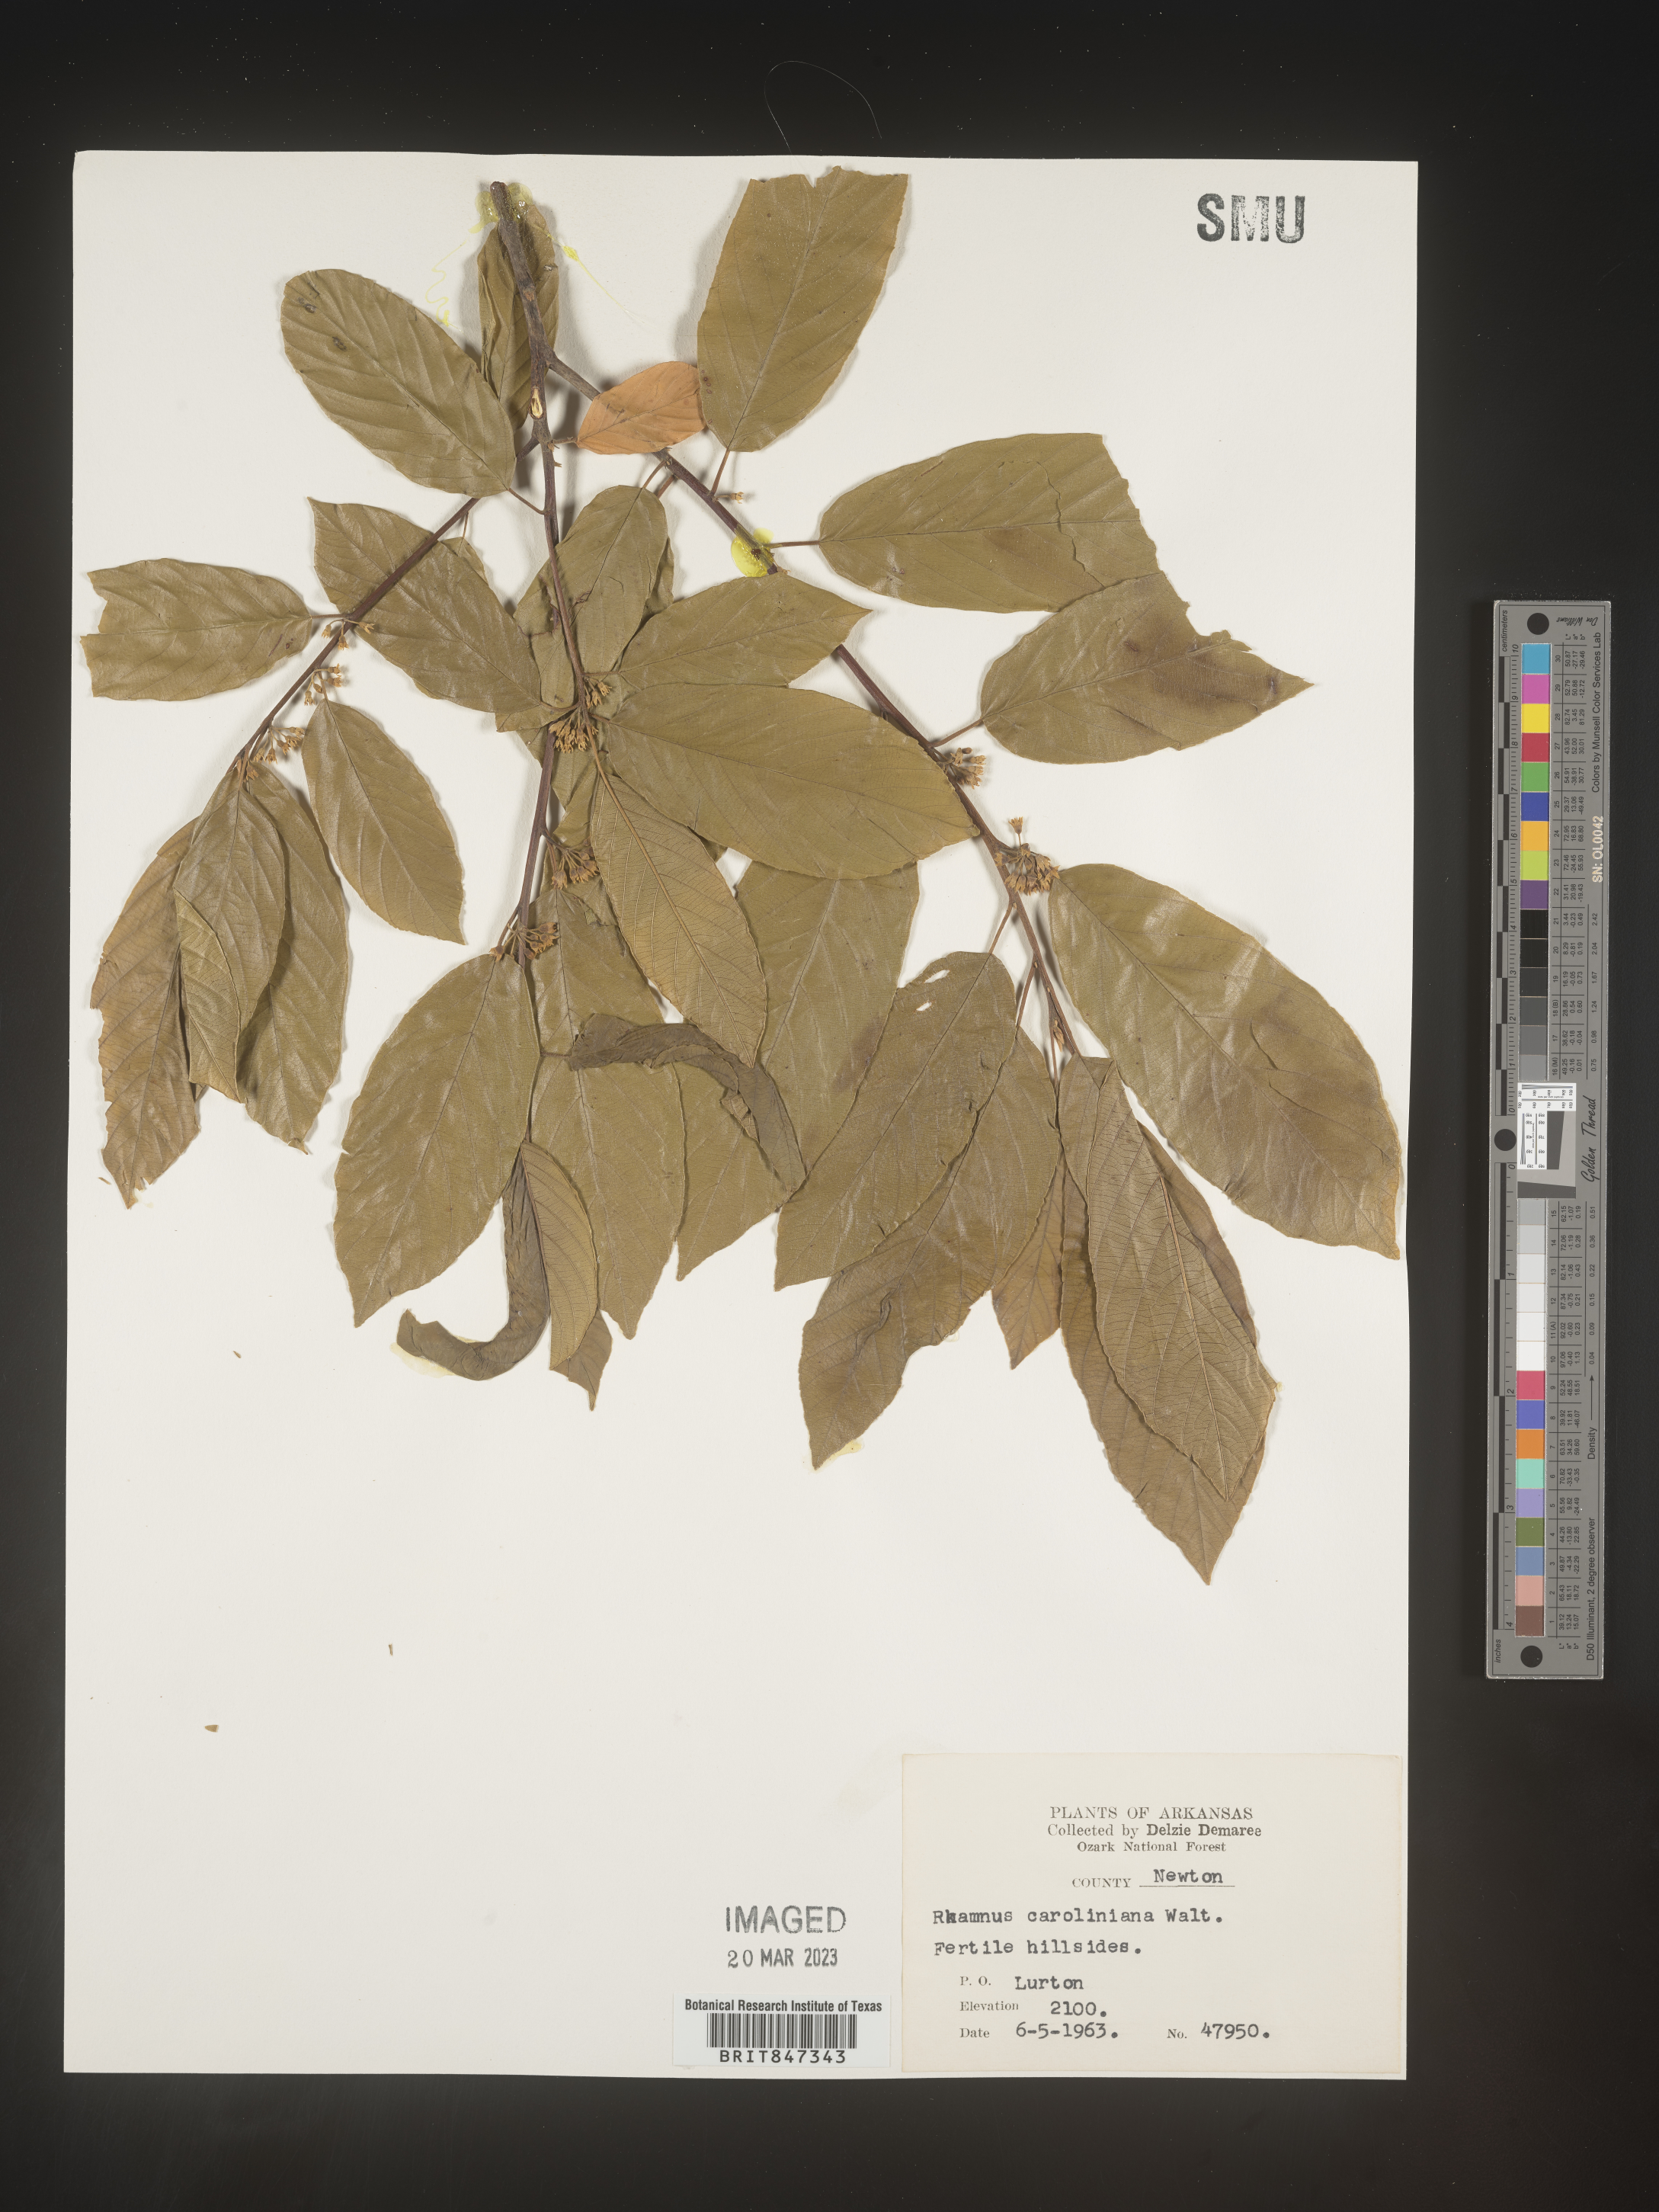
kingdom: Plantae
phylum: Tracheophyta
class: Magnoliopsida
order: Rosales
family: Rhamnaceae
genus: Frangula
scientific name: Frangula caroliniana
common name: Carolina buckthorn
